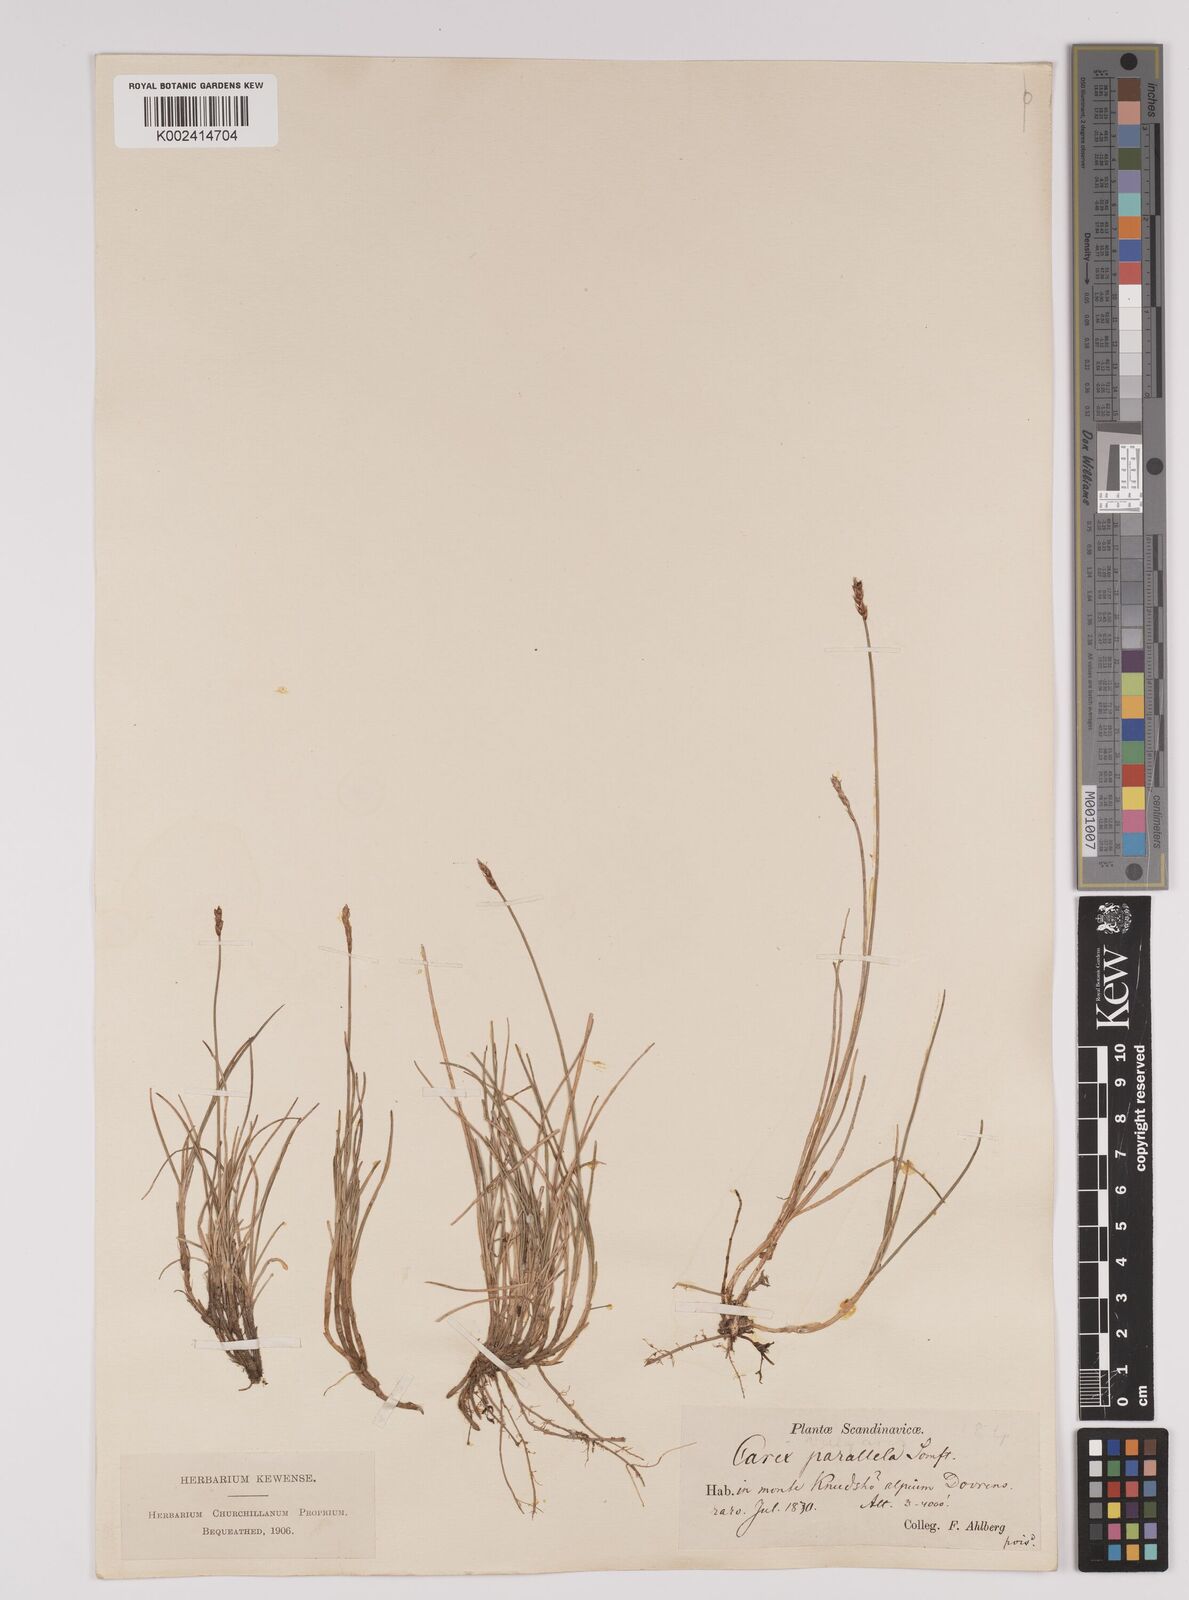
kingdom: Plantae
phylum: Tracheophyta
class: Liliopsida
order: Poales
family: Cyperaceae
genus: Carex
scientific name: Carex parallela
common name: Parallel sedge
